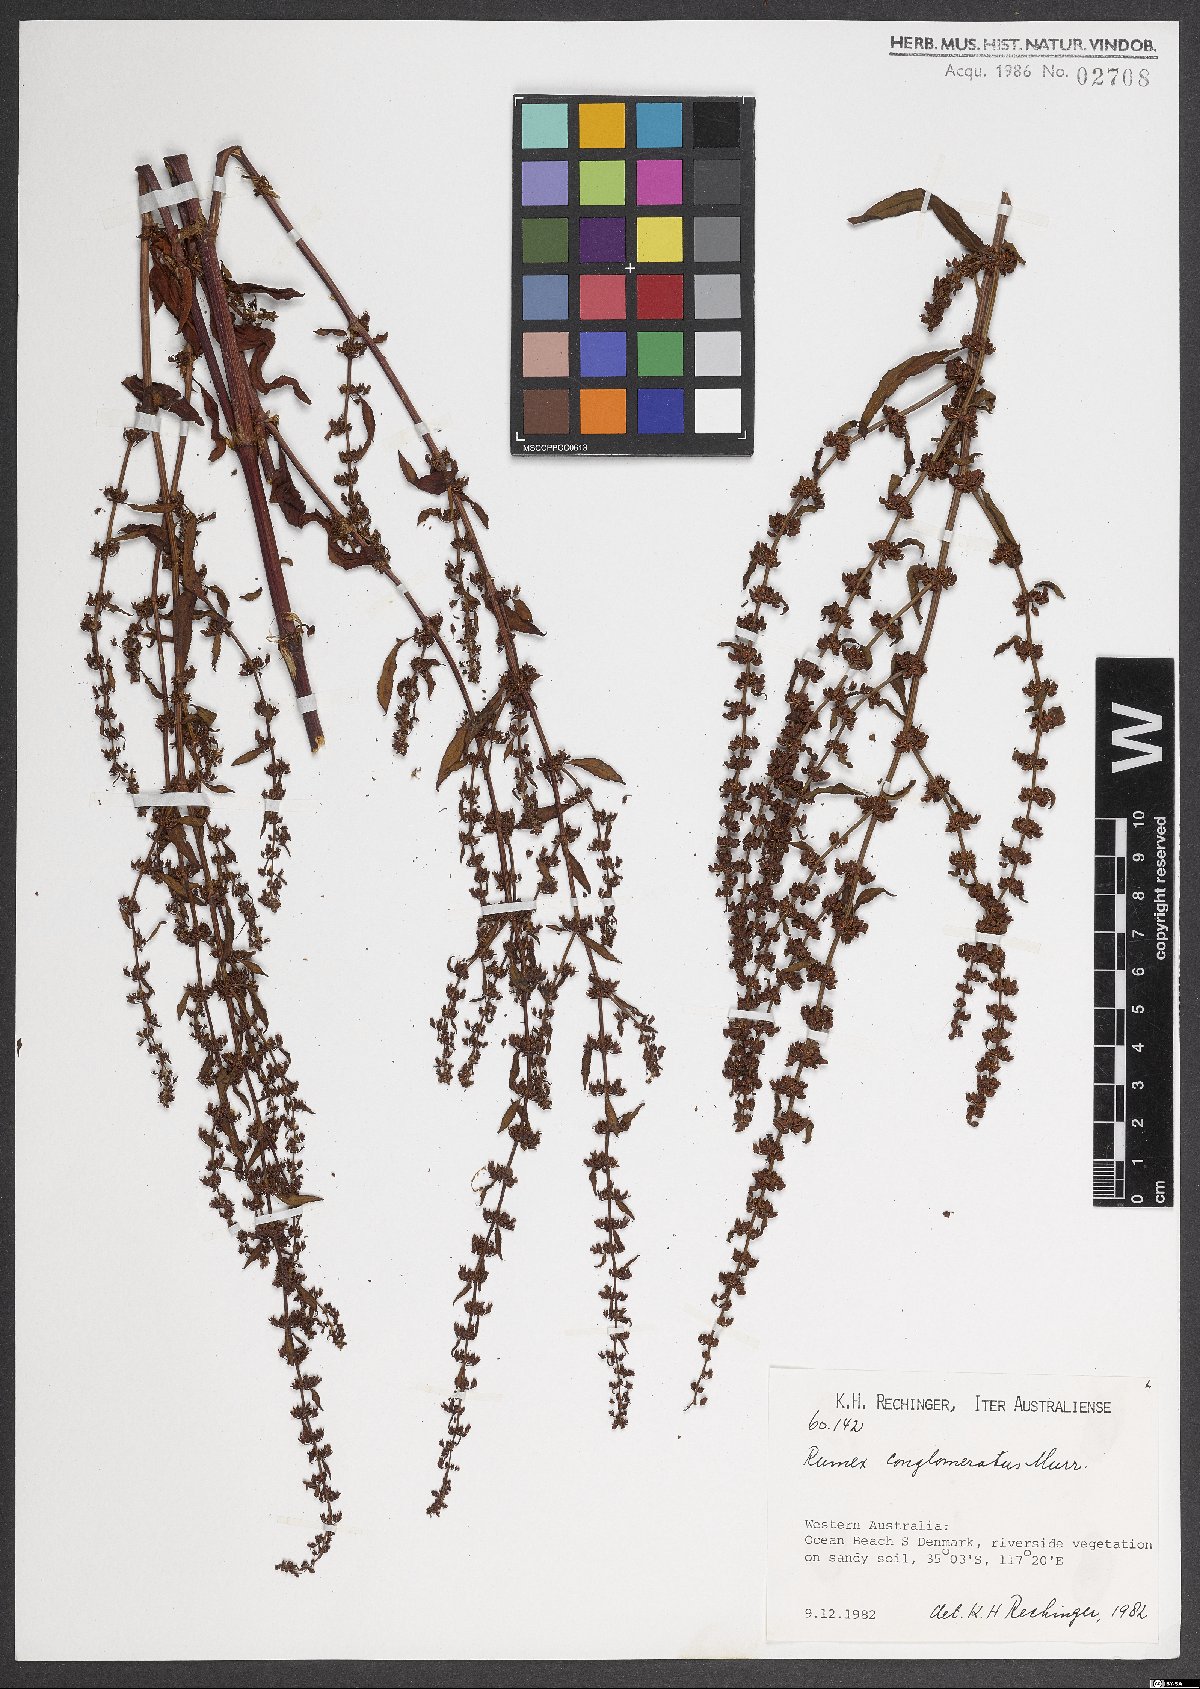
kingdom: Plantae
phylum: Tracheophyta
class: Magnoliopsida
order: Caryophyllales
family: Polygonaceae
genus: Rumex
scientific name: Rumex conglomeratus
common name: Clustered dock
